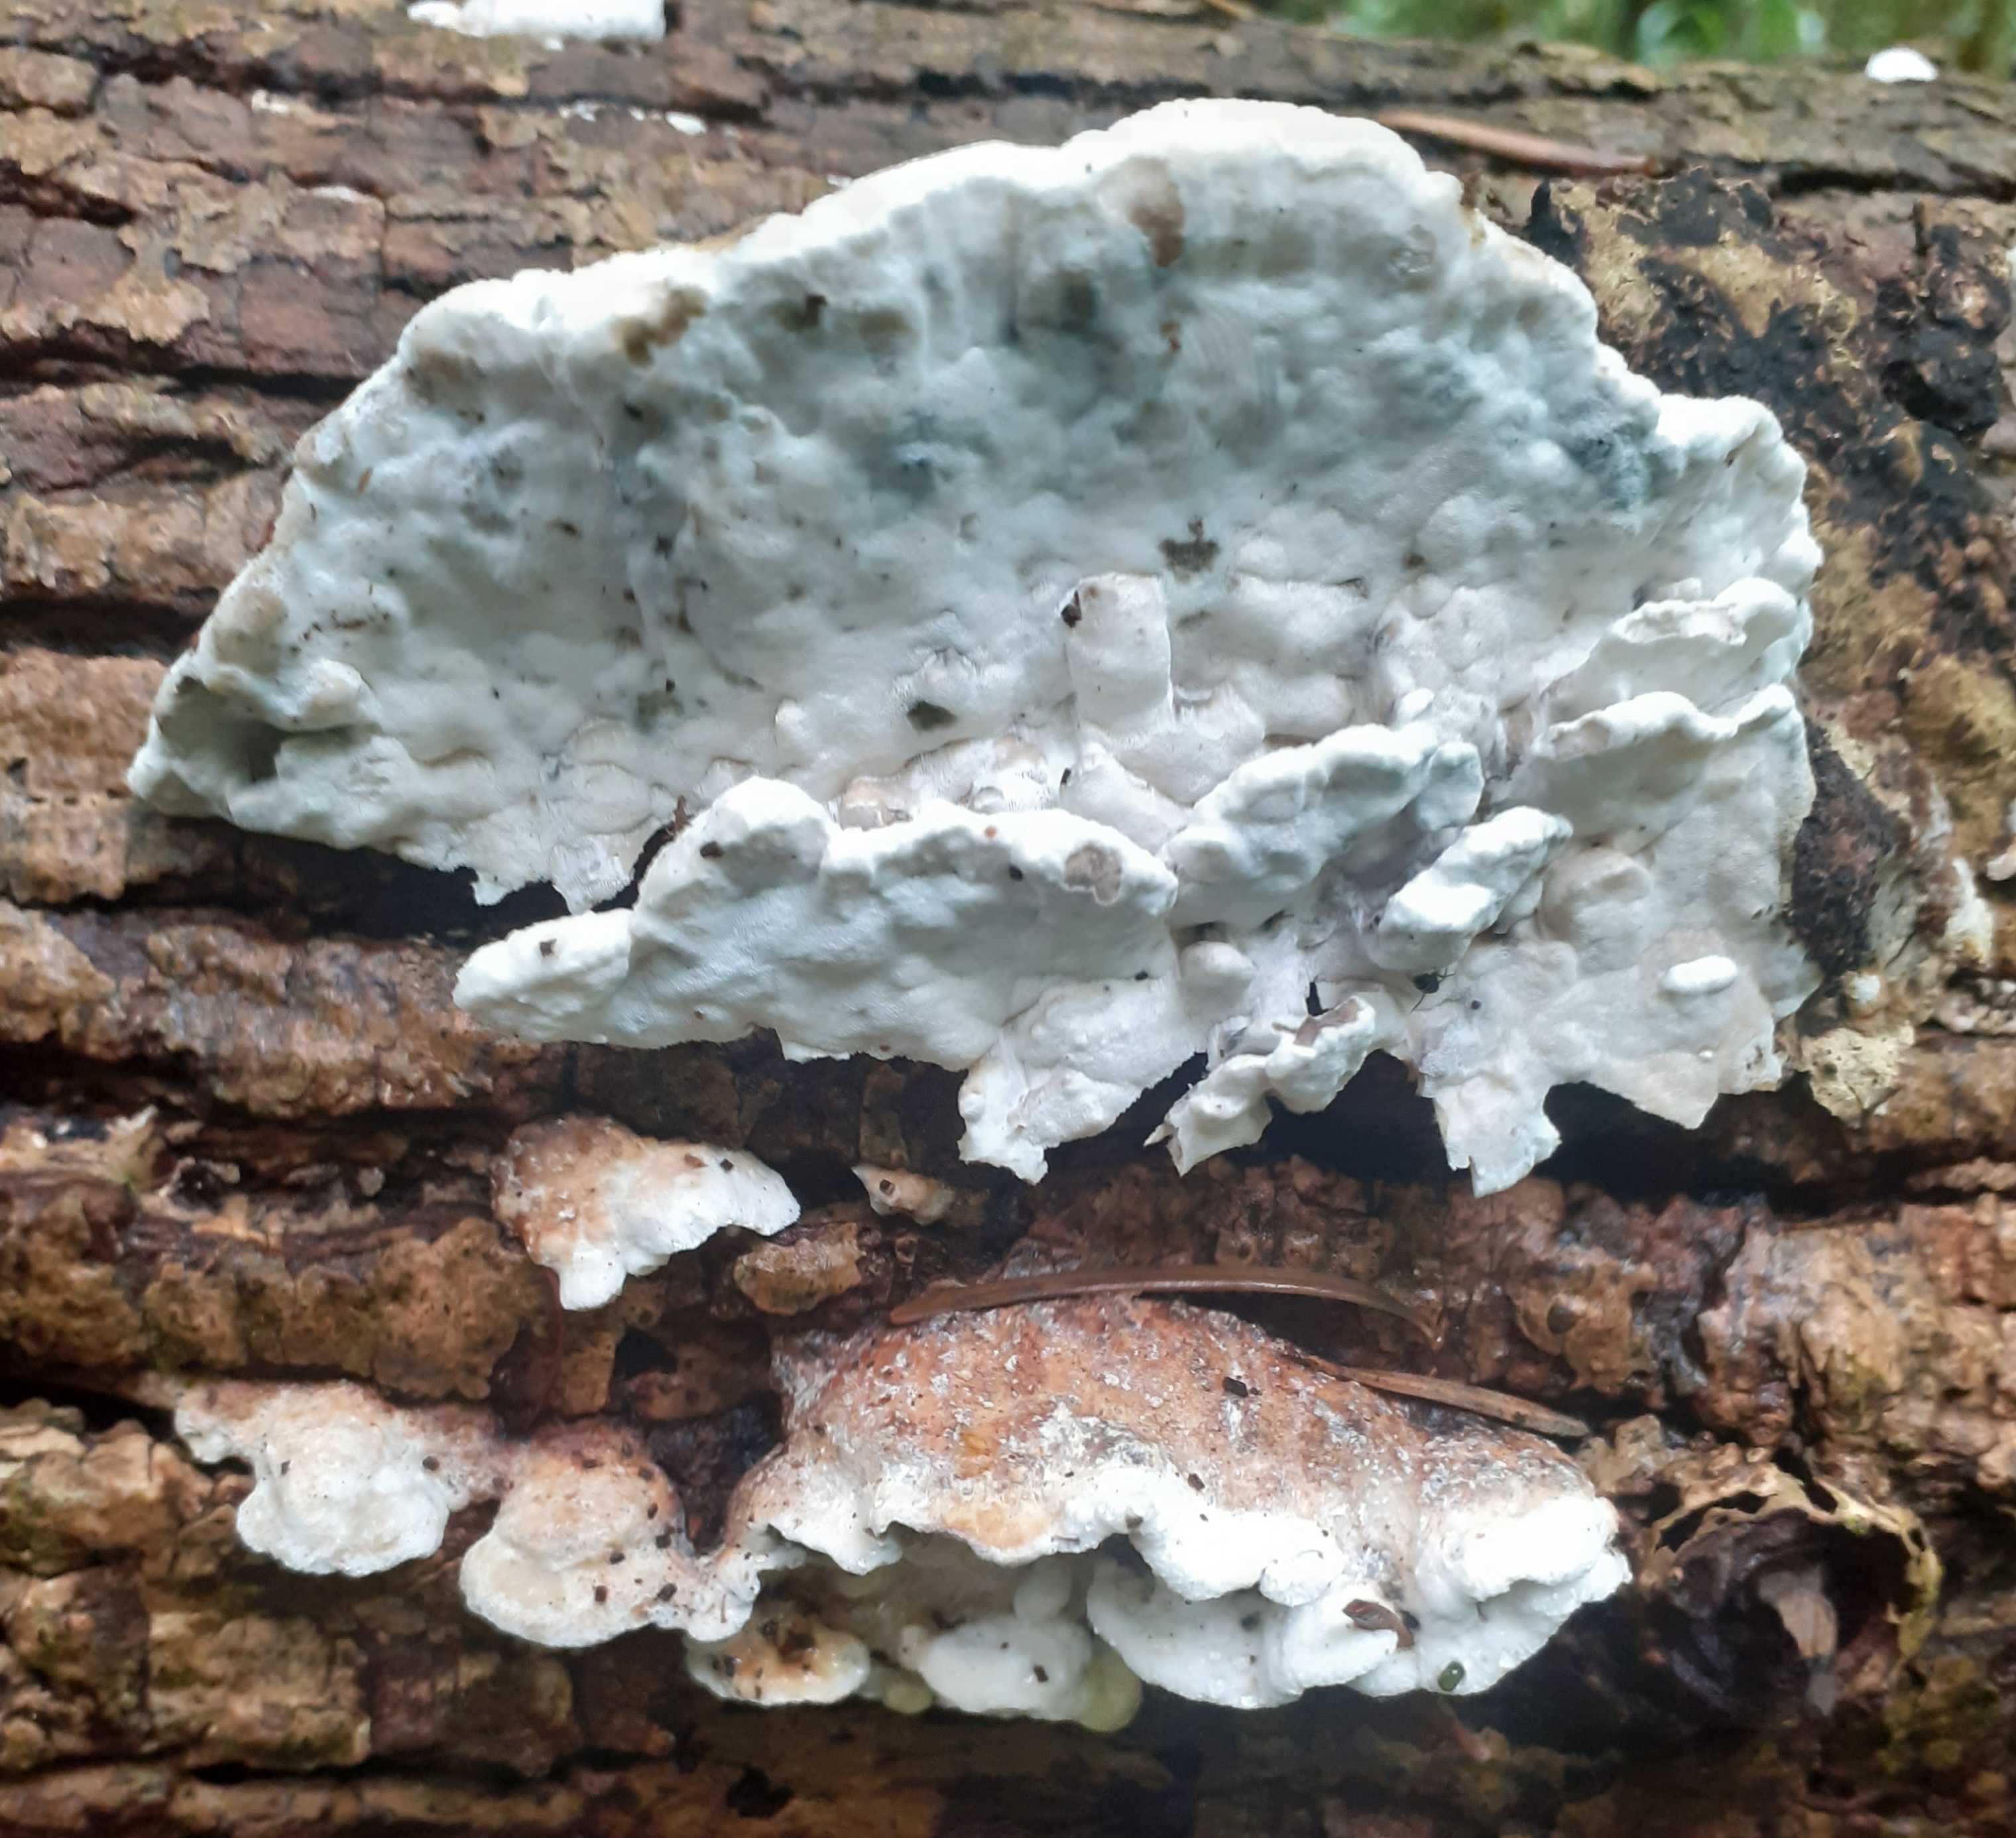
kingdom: Fungi
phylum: Basidiomycota
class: Agaricomycetes
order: Polyporales
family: Incrustoporiaceae
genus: Skeletocutis
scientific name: Skeletocutis nemoralis
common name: stor krystalporesvamp
